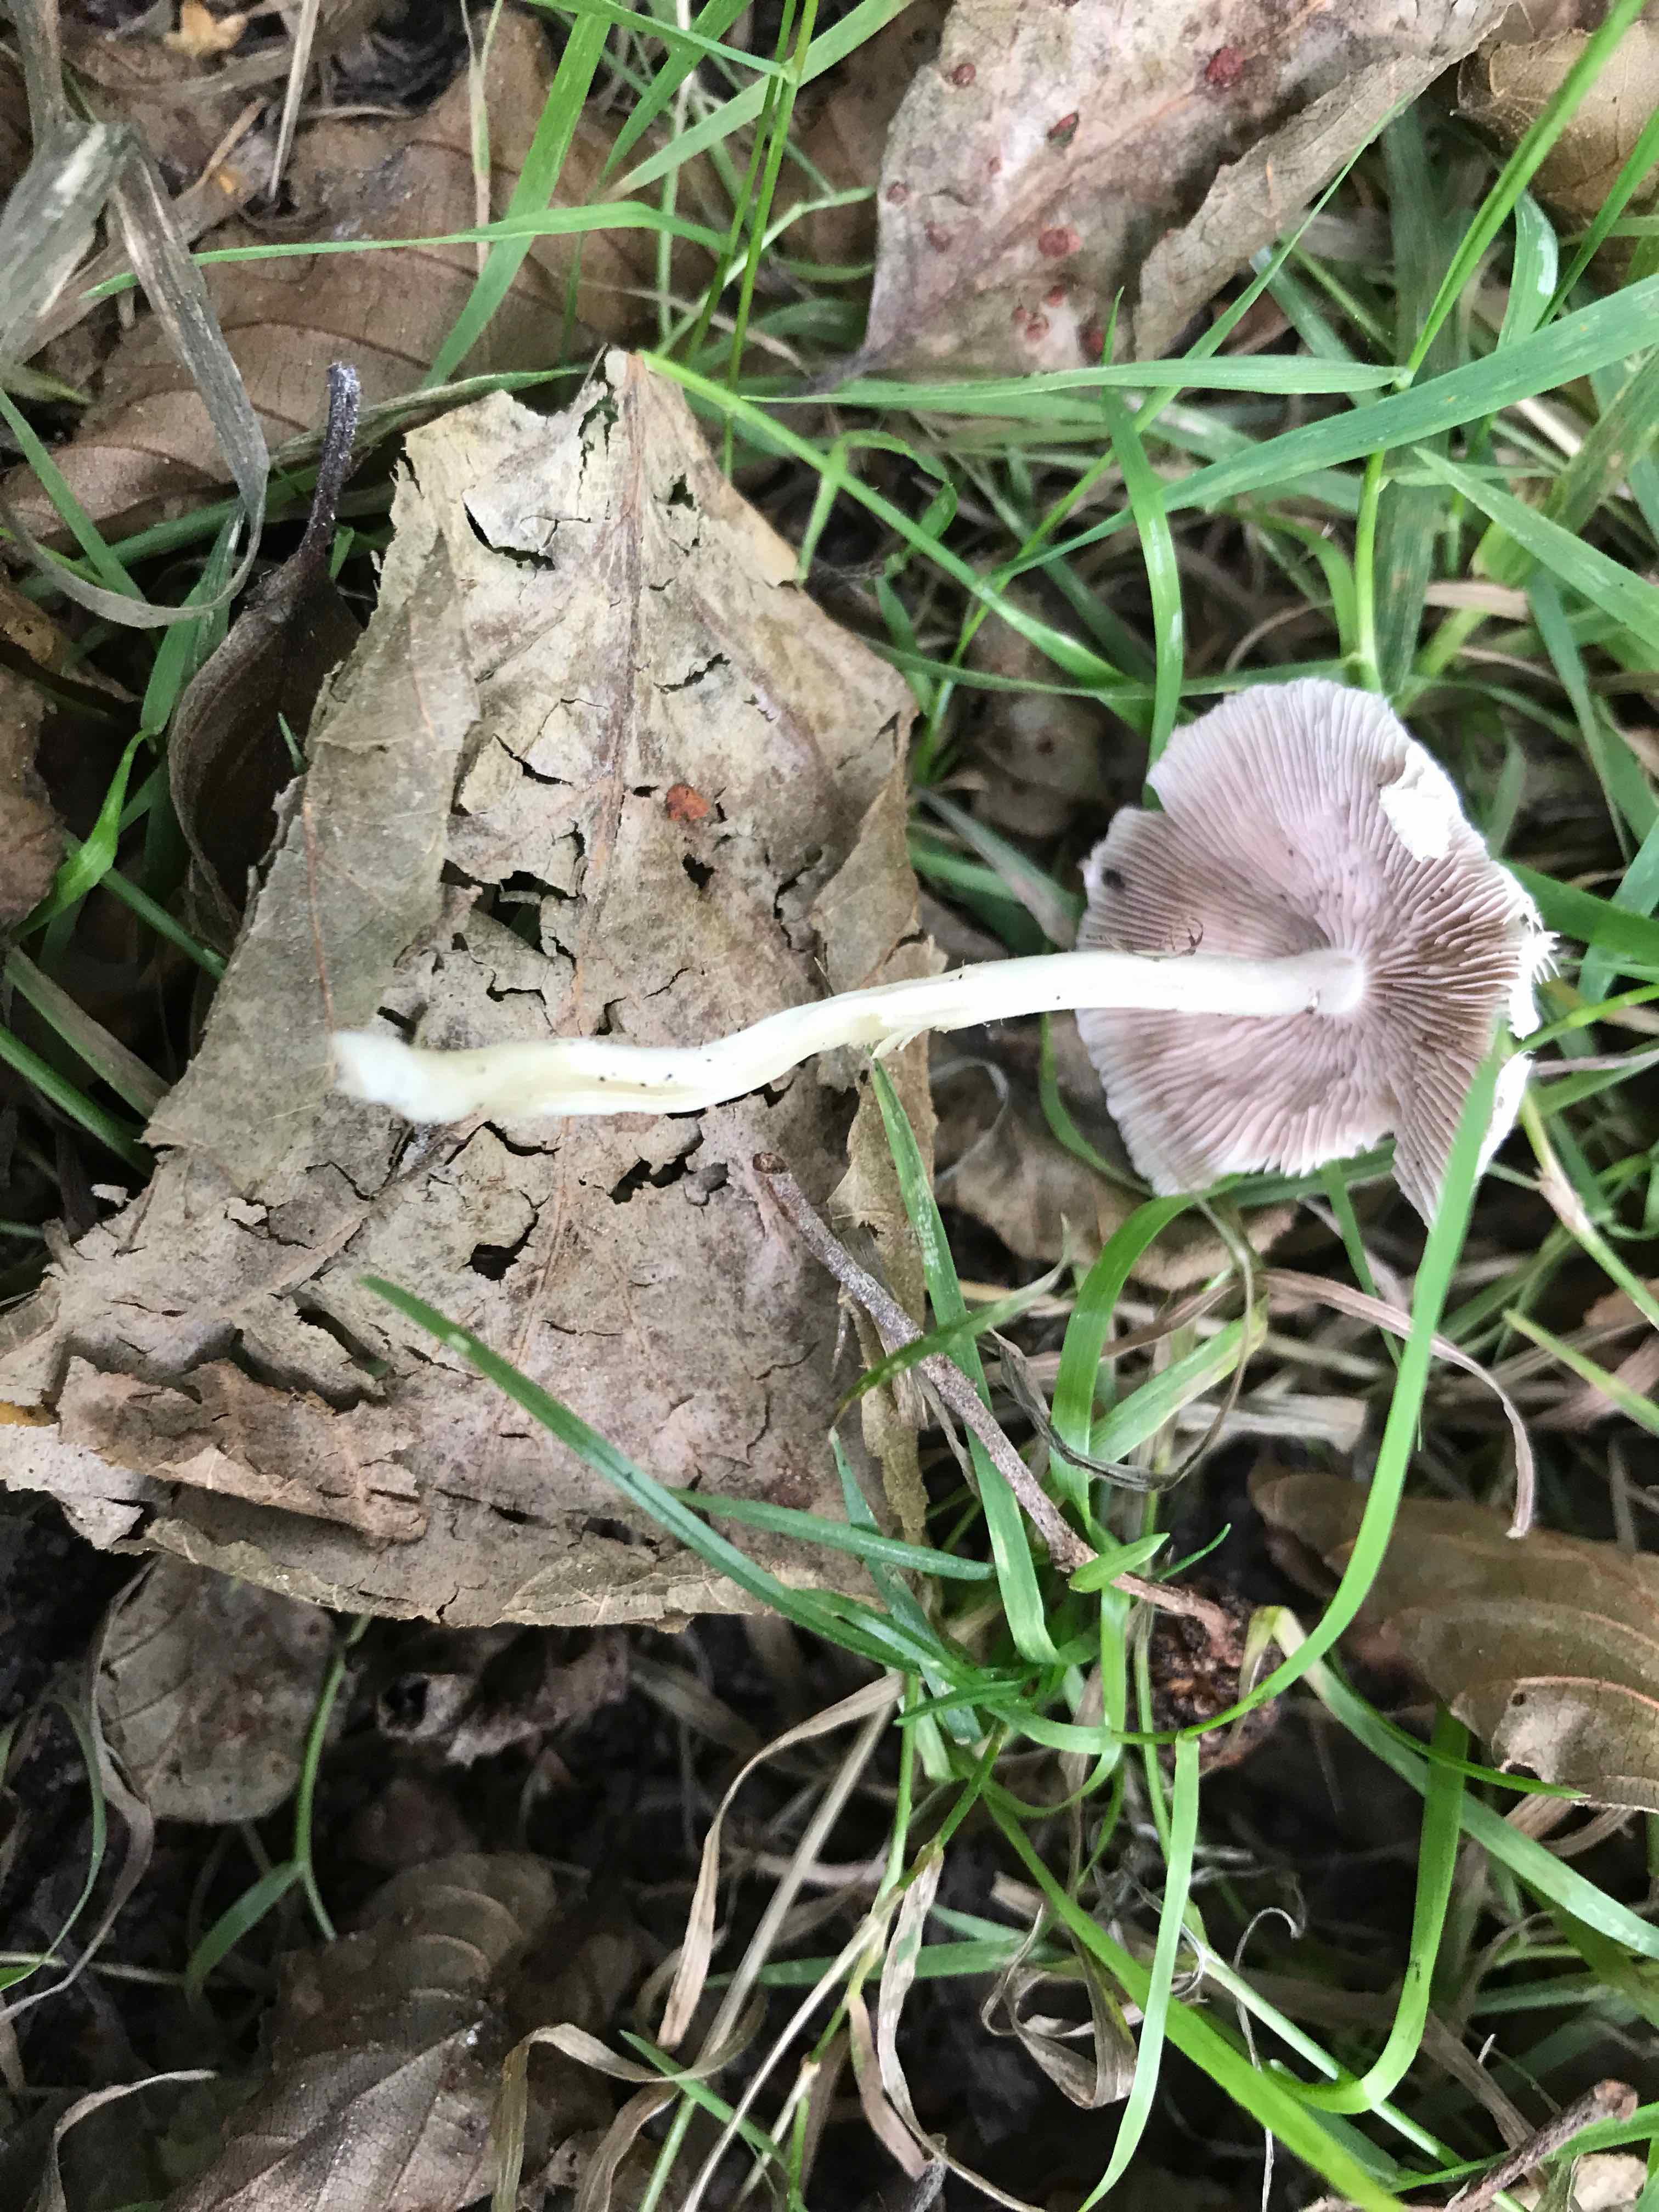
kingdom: Fungi
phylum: Basidiomycota
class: Agaricomycetes
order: Agaricales
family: Psathyrellaceae
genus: Candolleomyces
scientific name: Candolleomyces candolleanus
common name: Candolles mørkhat
